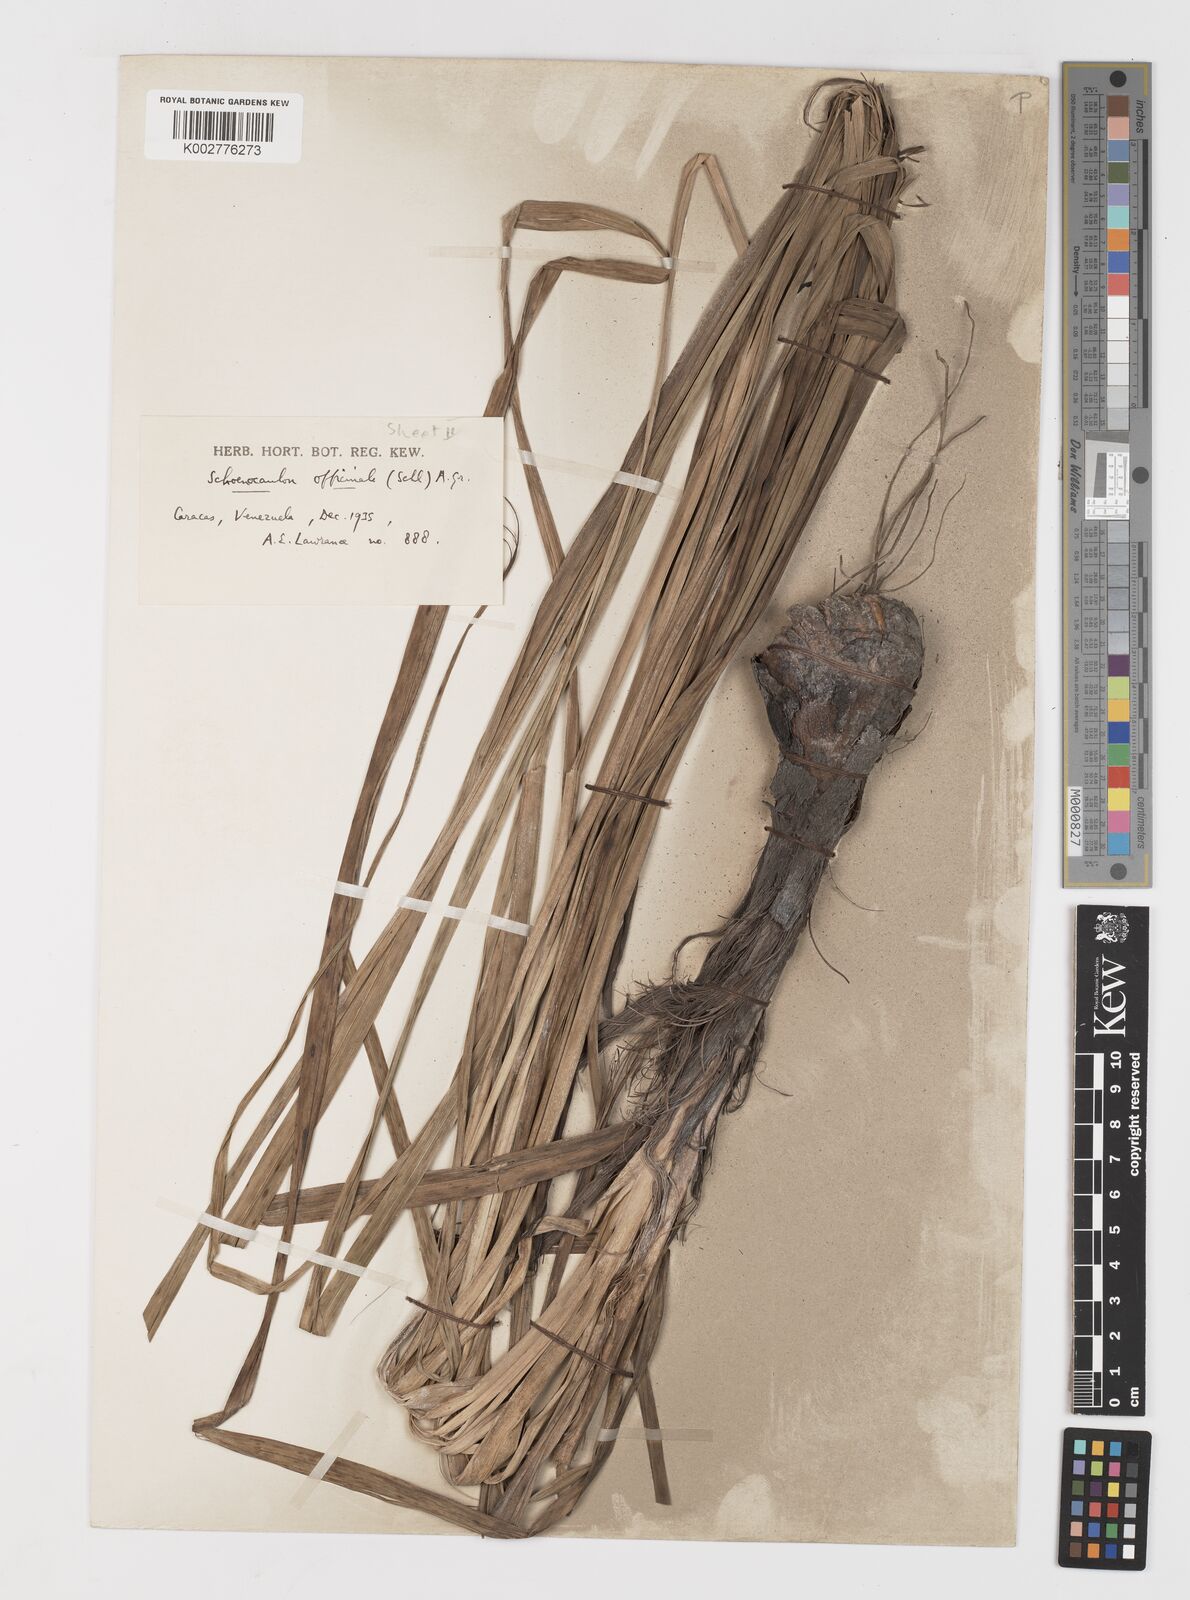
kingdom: Plantae
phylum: Tracheophyta
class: Liliopsida
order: Liliales
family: Melanthiaceae
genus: Schoenocaulon
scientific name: Schoenocaulon officinale
